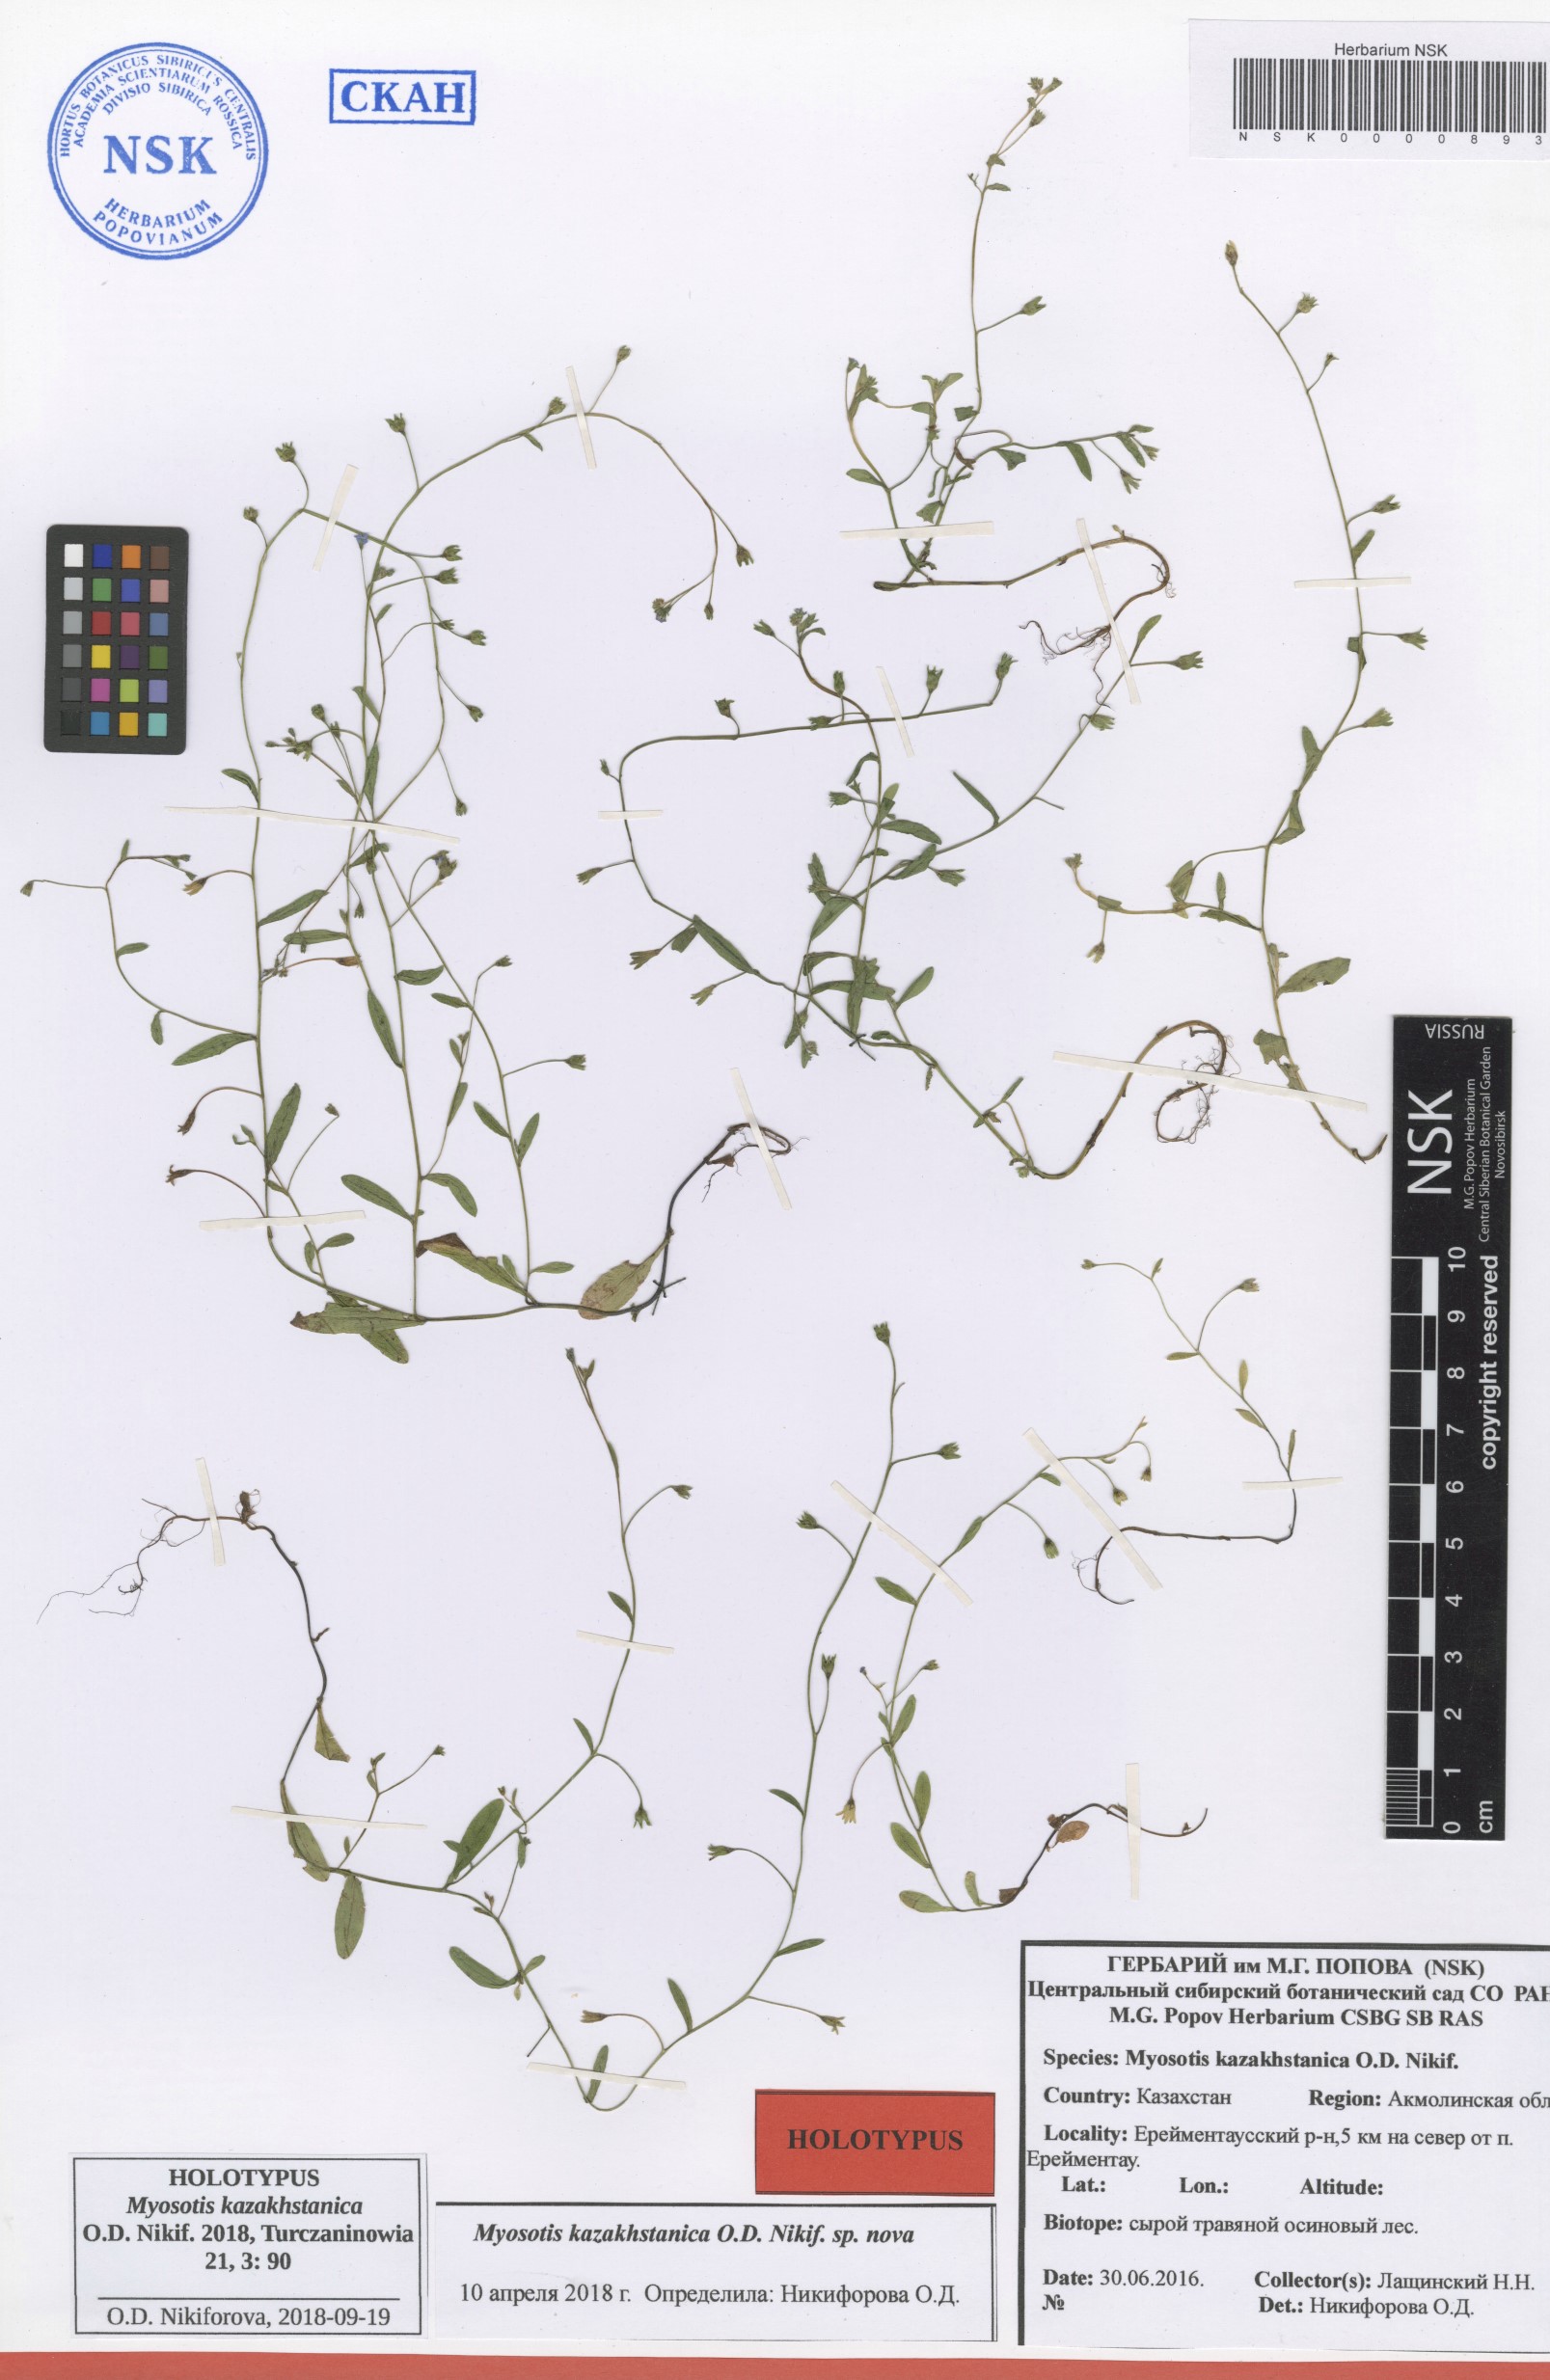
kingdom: Plantae
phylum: Tracheophyta
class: Magnoliopsida
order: Boraginales
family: Boraginaceae
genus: Myosotis
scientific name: Myosotis kazakhstanica
